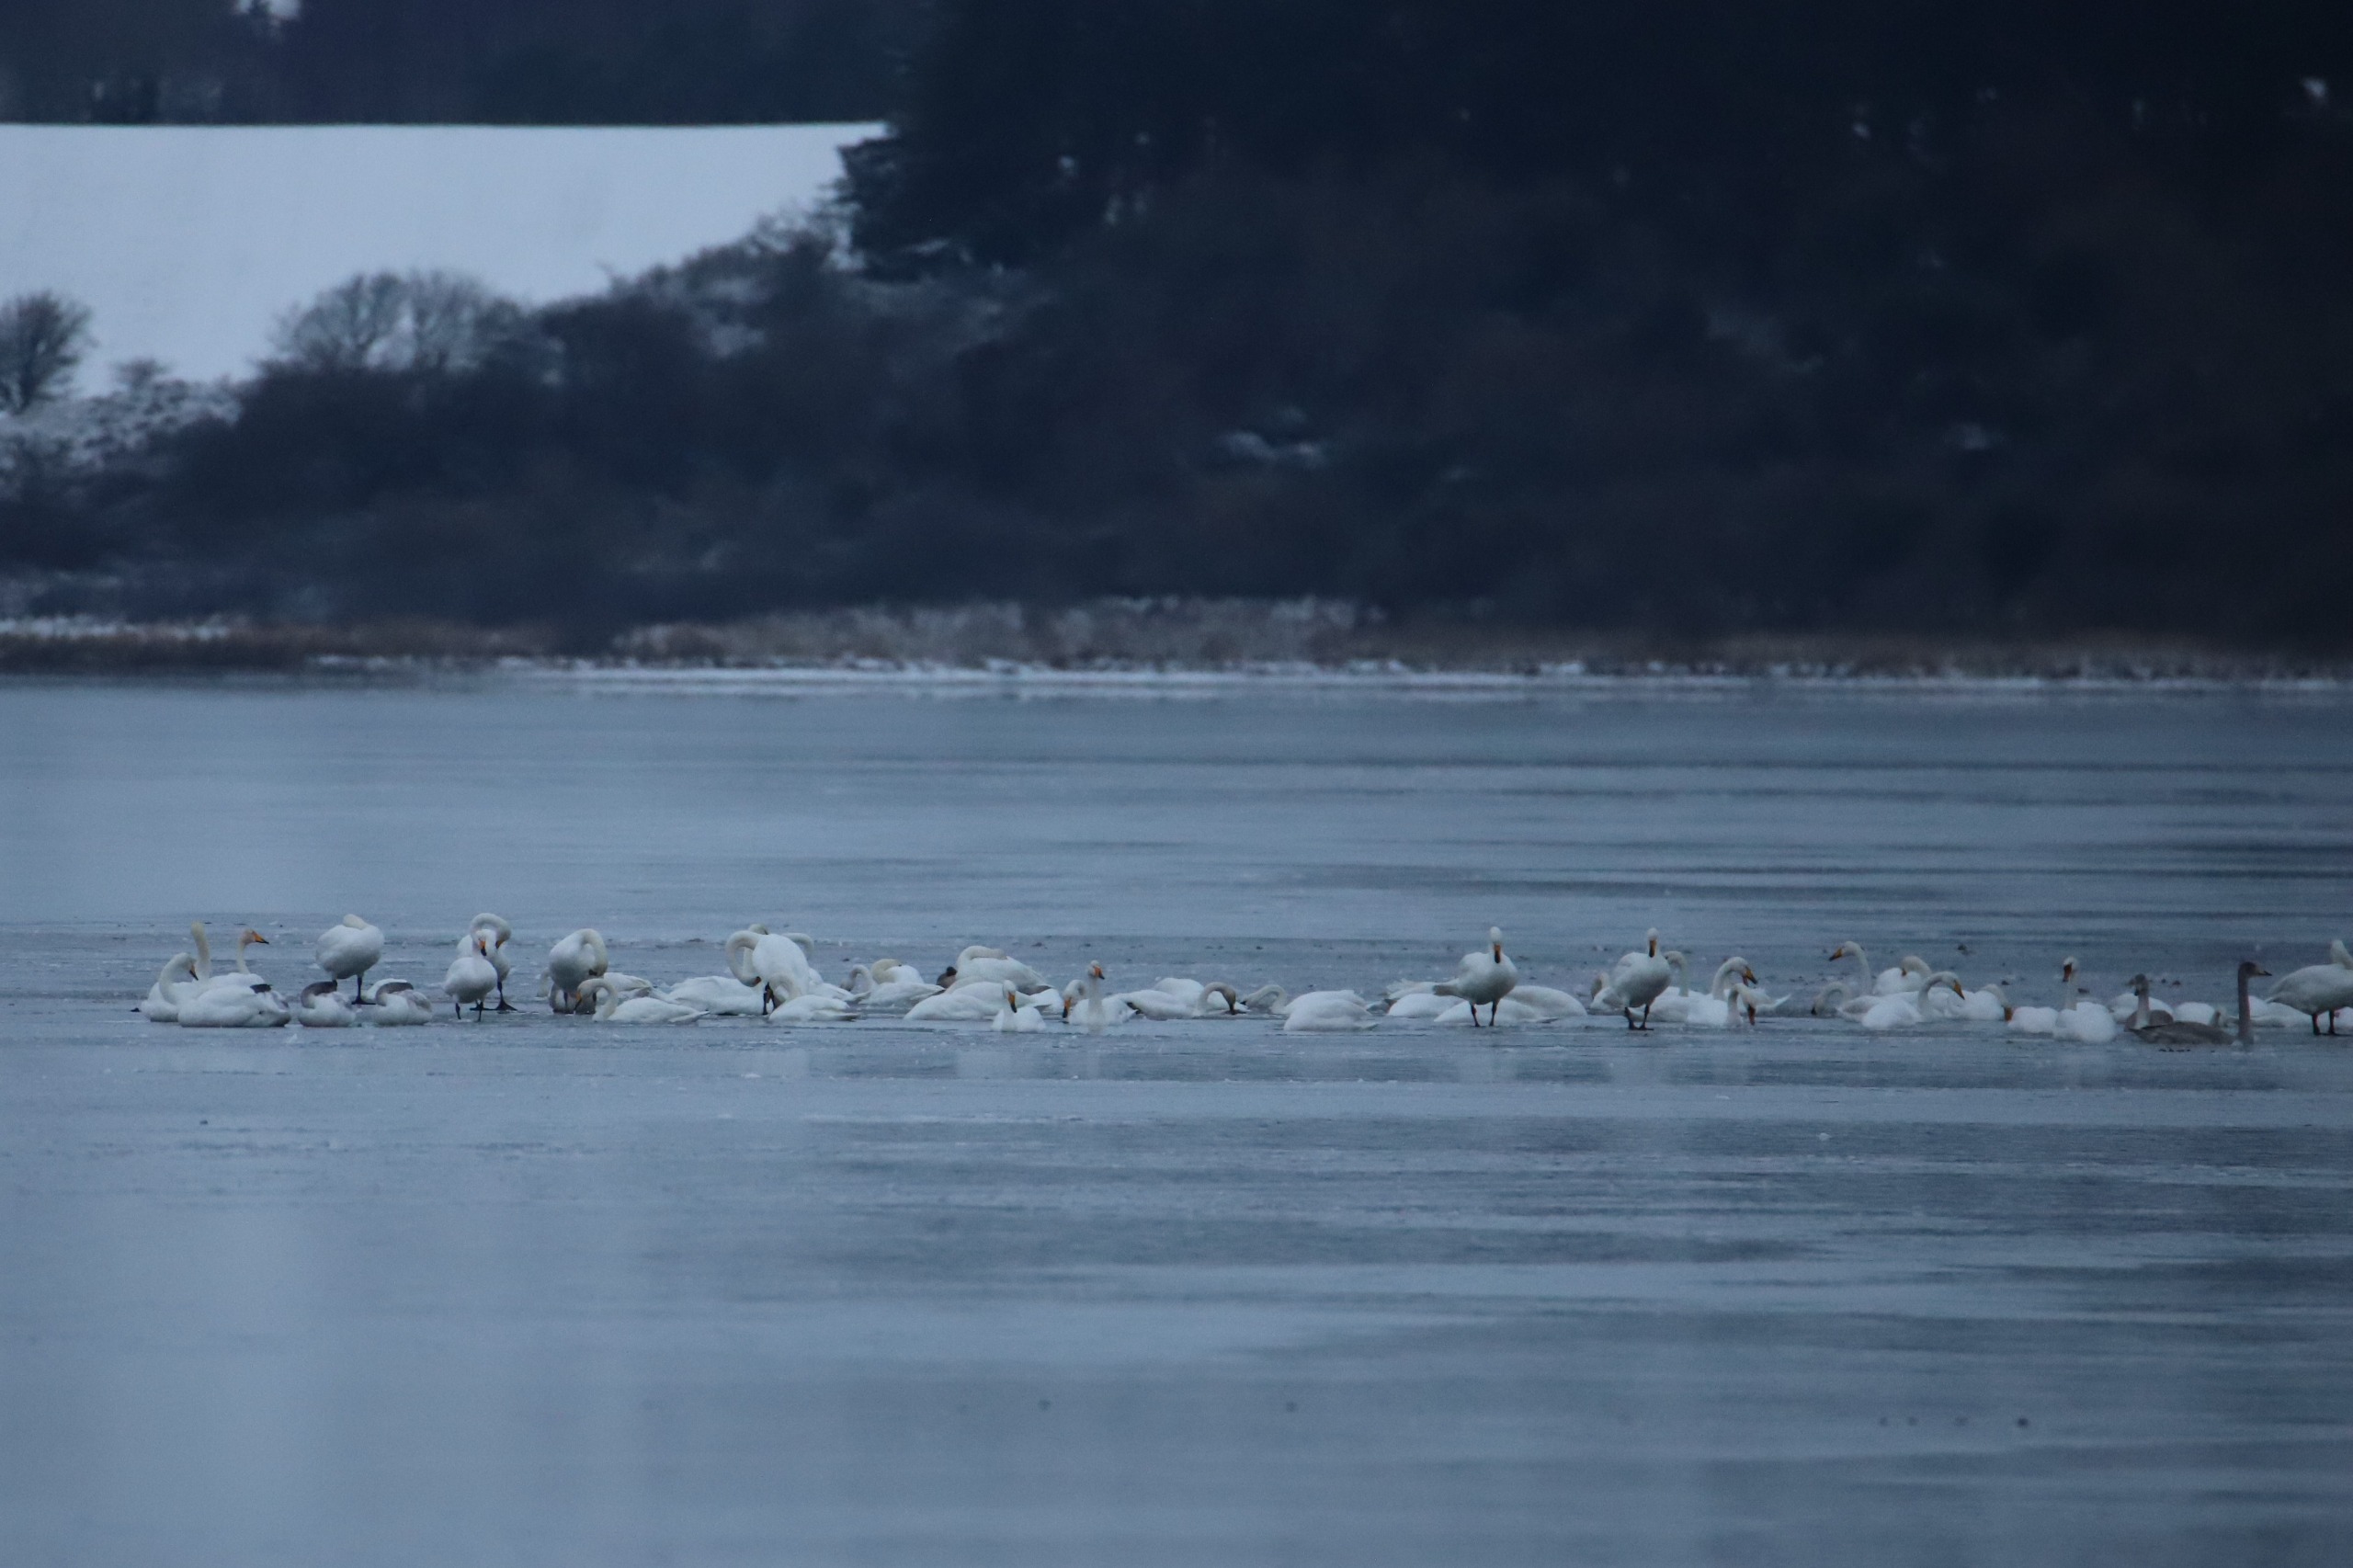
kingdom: Animalia
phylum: Chordata
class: Aves
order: Anseriformes
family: Anatidae
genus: Cygnus
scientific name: Cygnus cygnus
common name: Sangsvane
